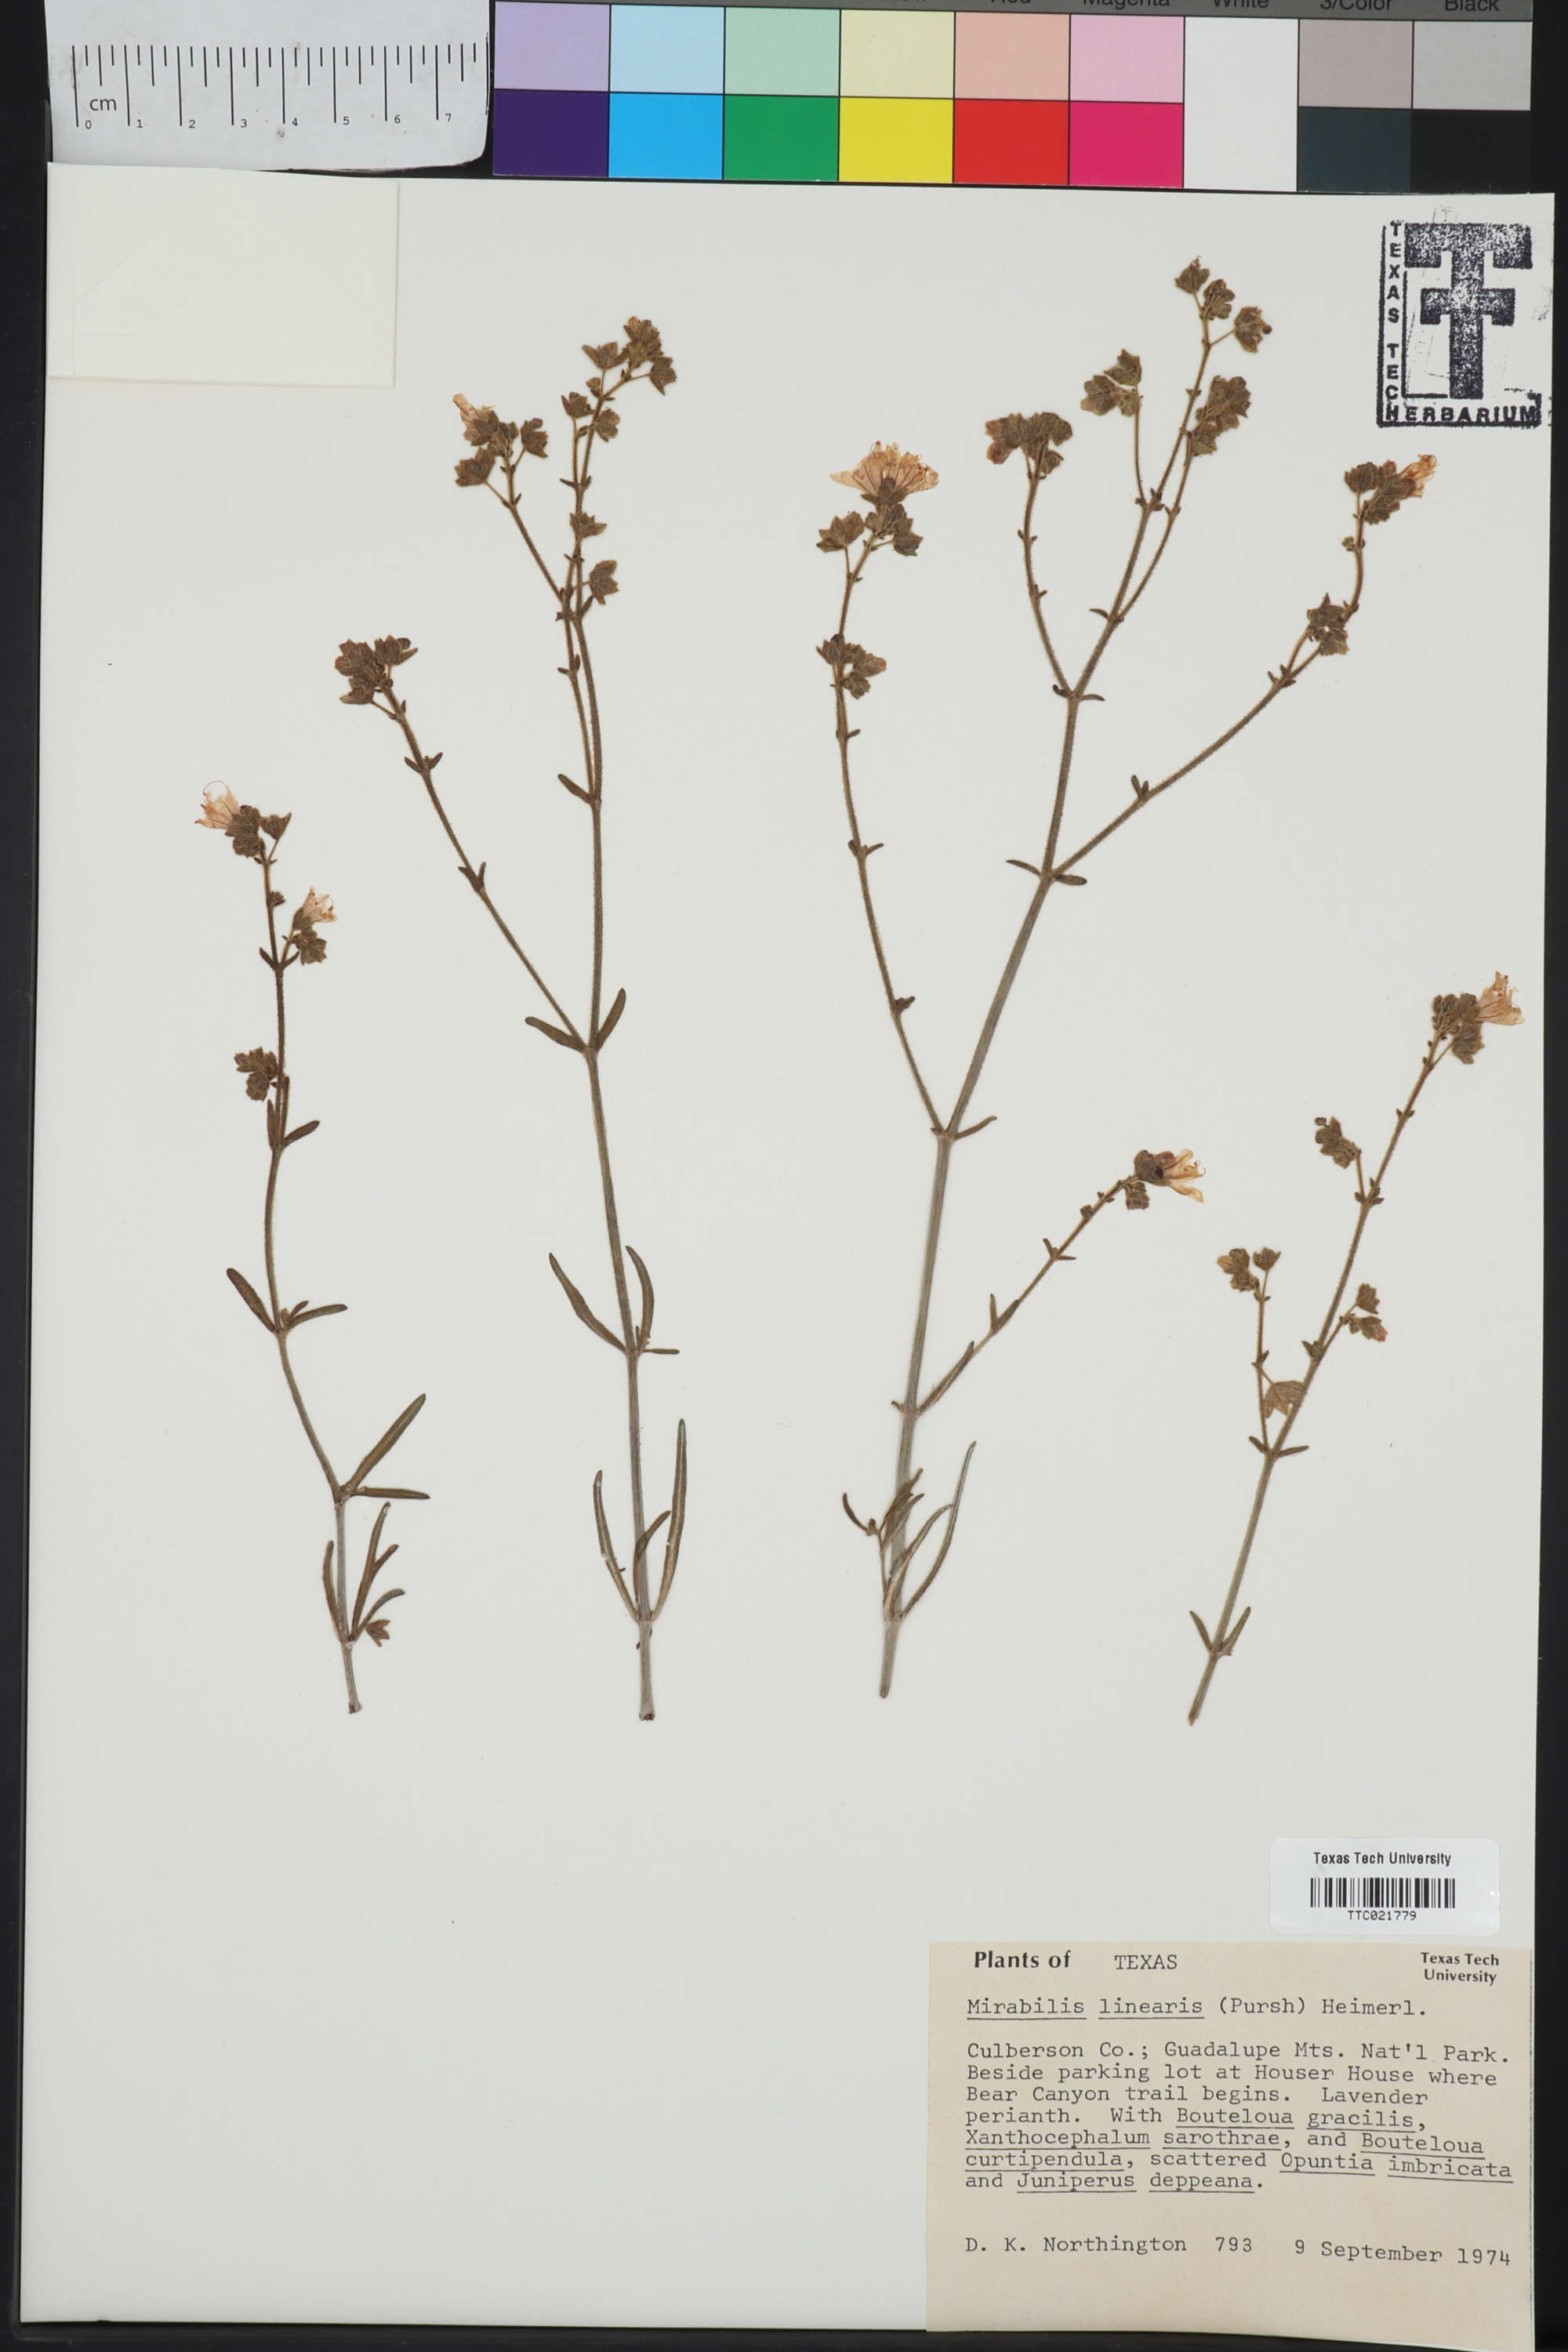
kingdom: Plantae
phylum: Tracheophyta
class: Magnoliopsida
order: Caryophyllales
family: Nyctaginaceae
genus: Mirabilis
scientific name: Mirabilis linearis
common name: Linear-leaved four-o'clock
